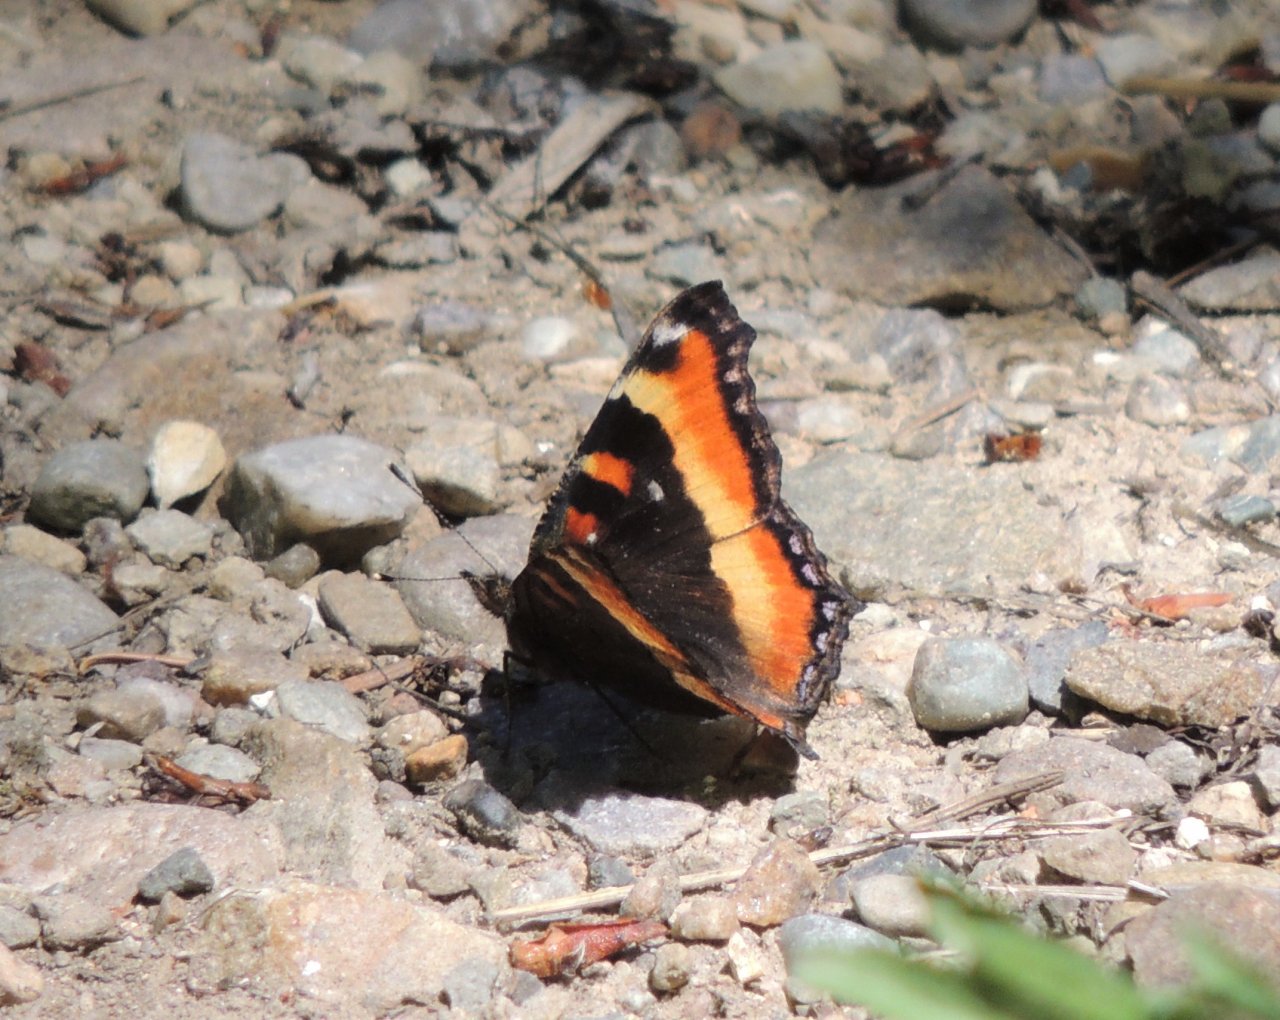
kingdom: Animalia
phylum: Arthropoda
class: Insecta
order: Lepidoptera
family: Nymphalidae
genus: Aglais
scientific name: Aglais milberti
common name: Milbert's Tortoiseshell
